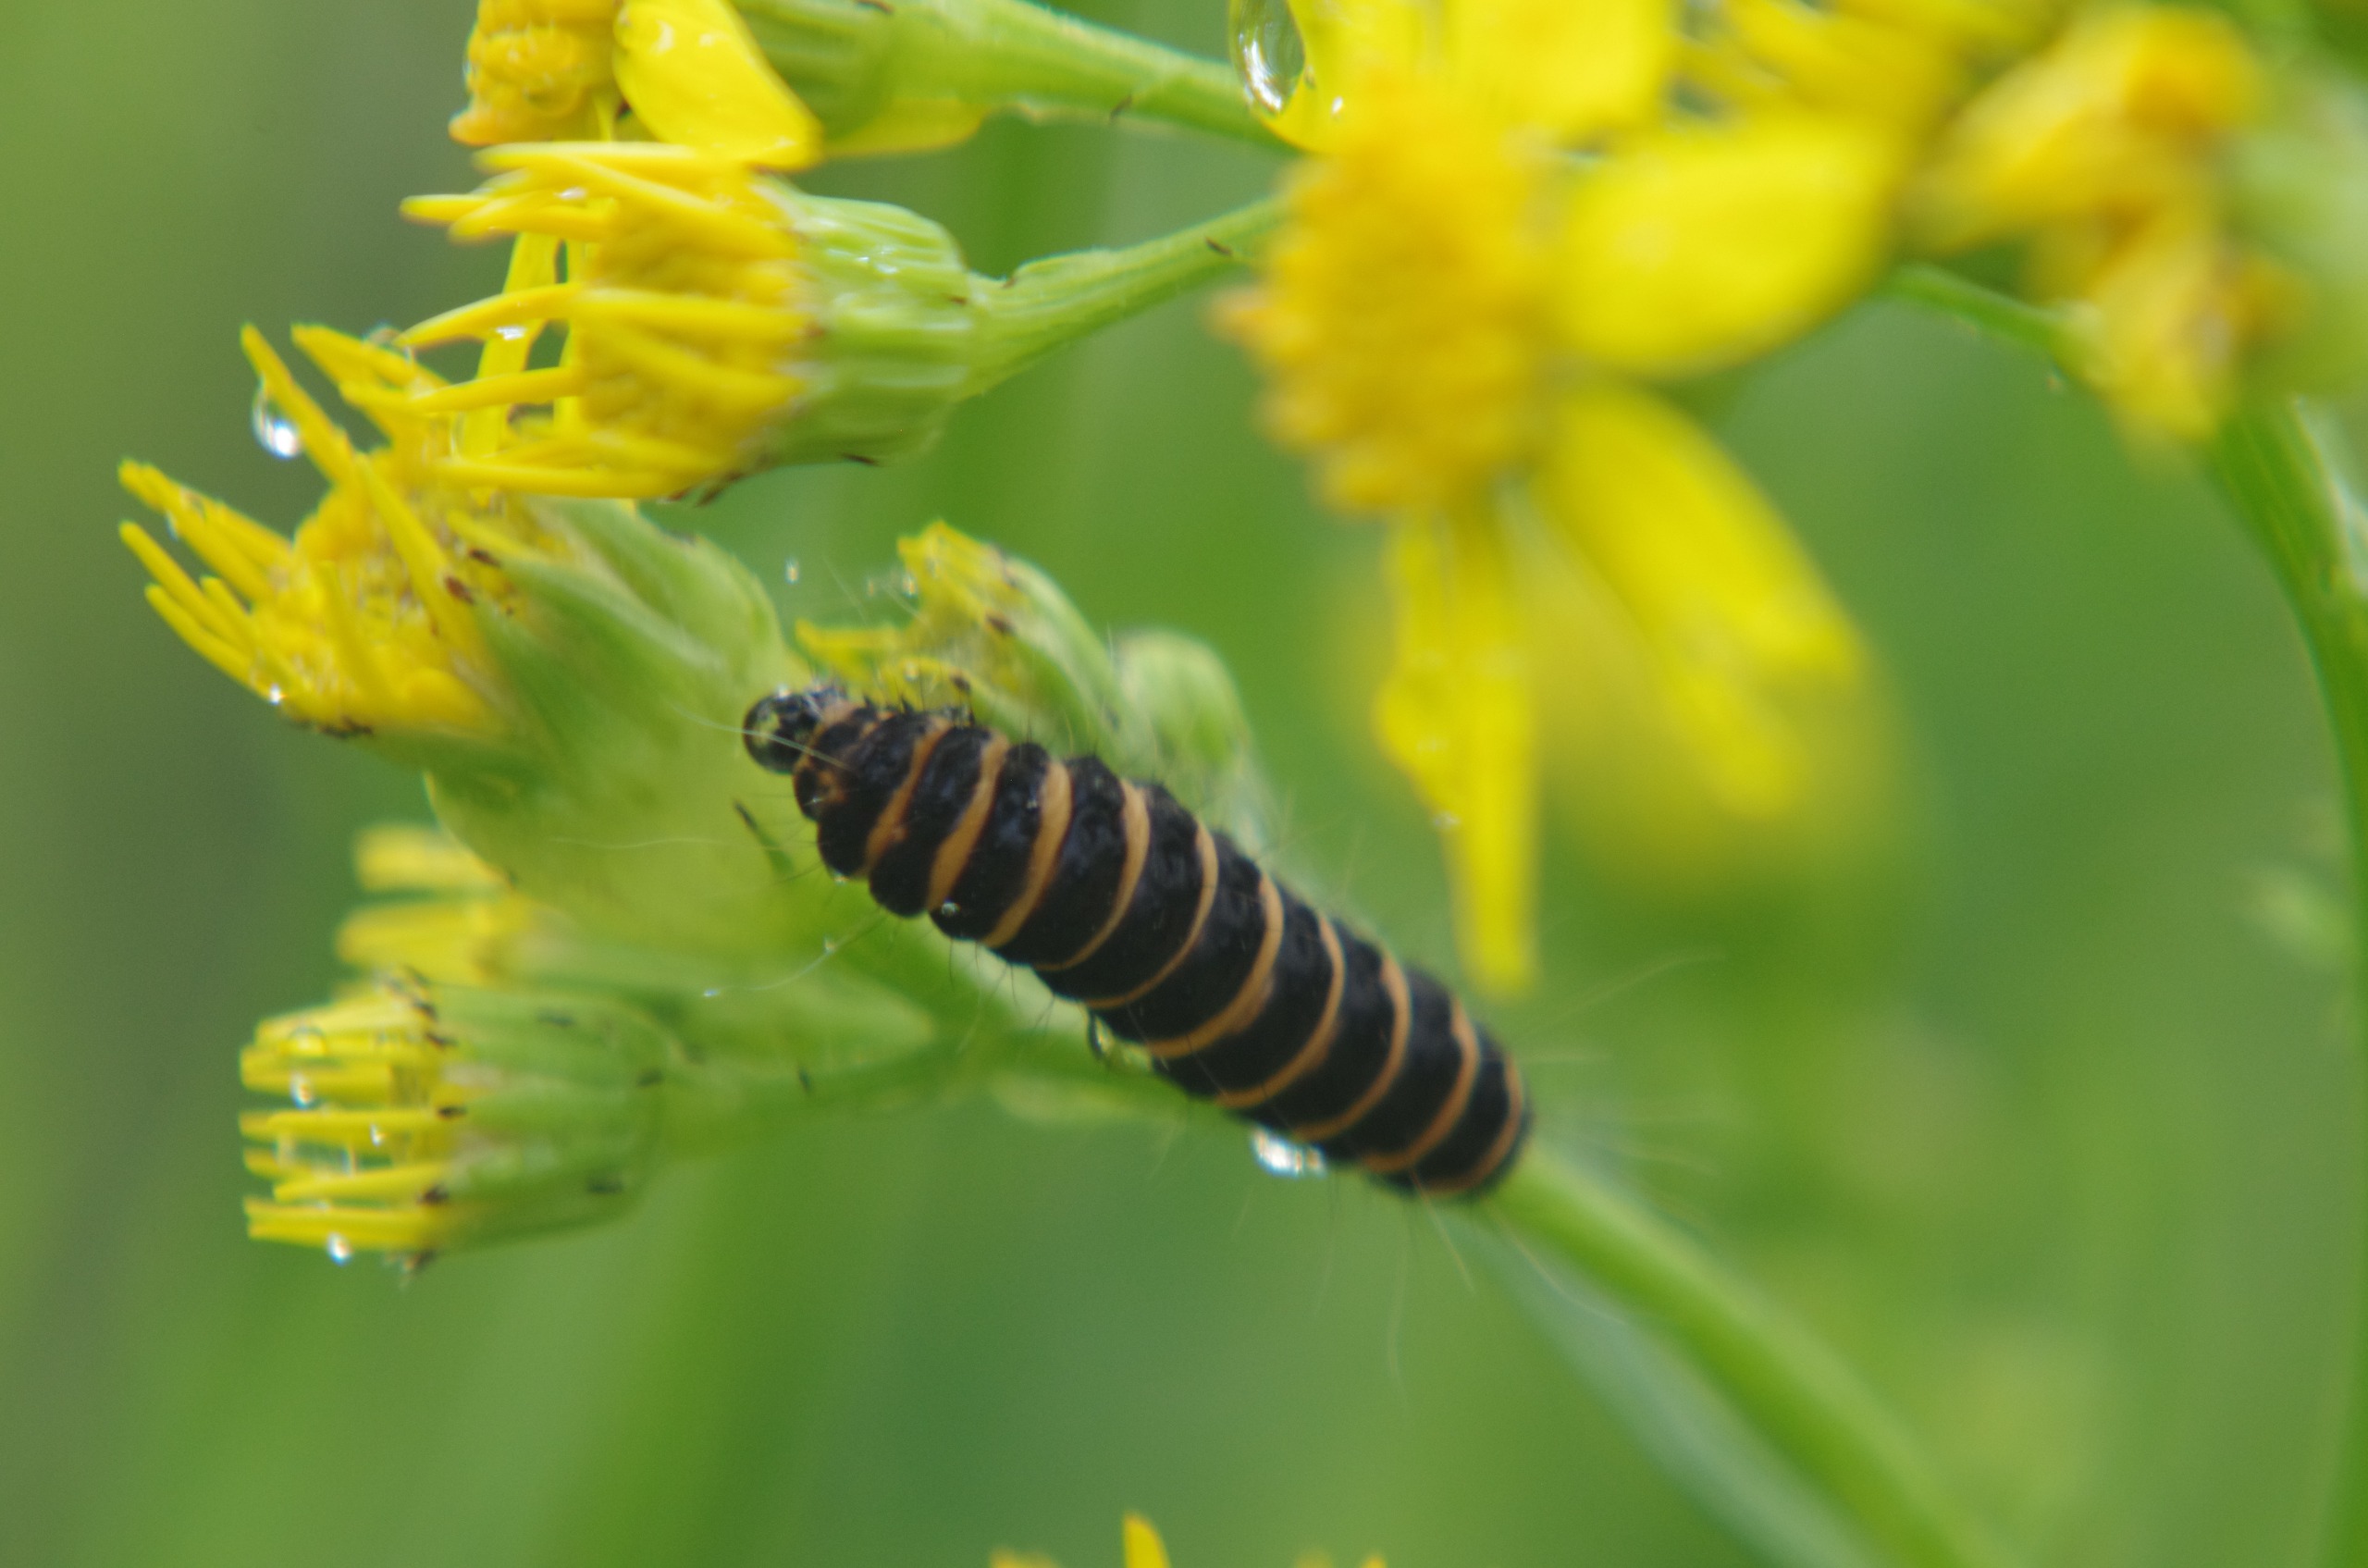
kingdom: Animalia
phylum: Arthropoda
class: Insecta
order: Lepidoptera
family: Erebidae
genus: Tyria
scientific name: Tyria jacobaeae
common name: Blodplet
